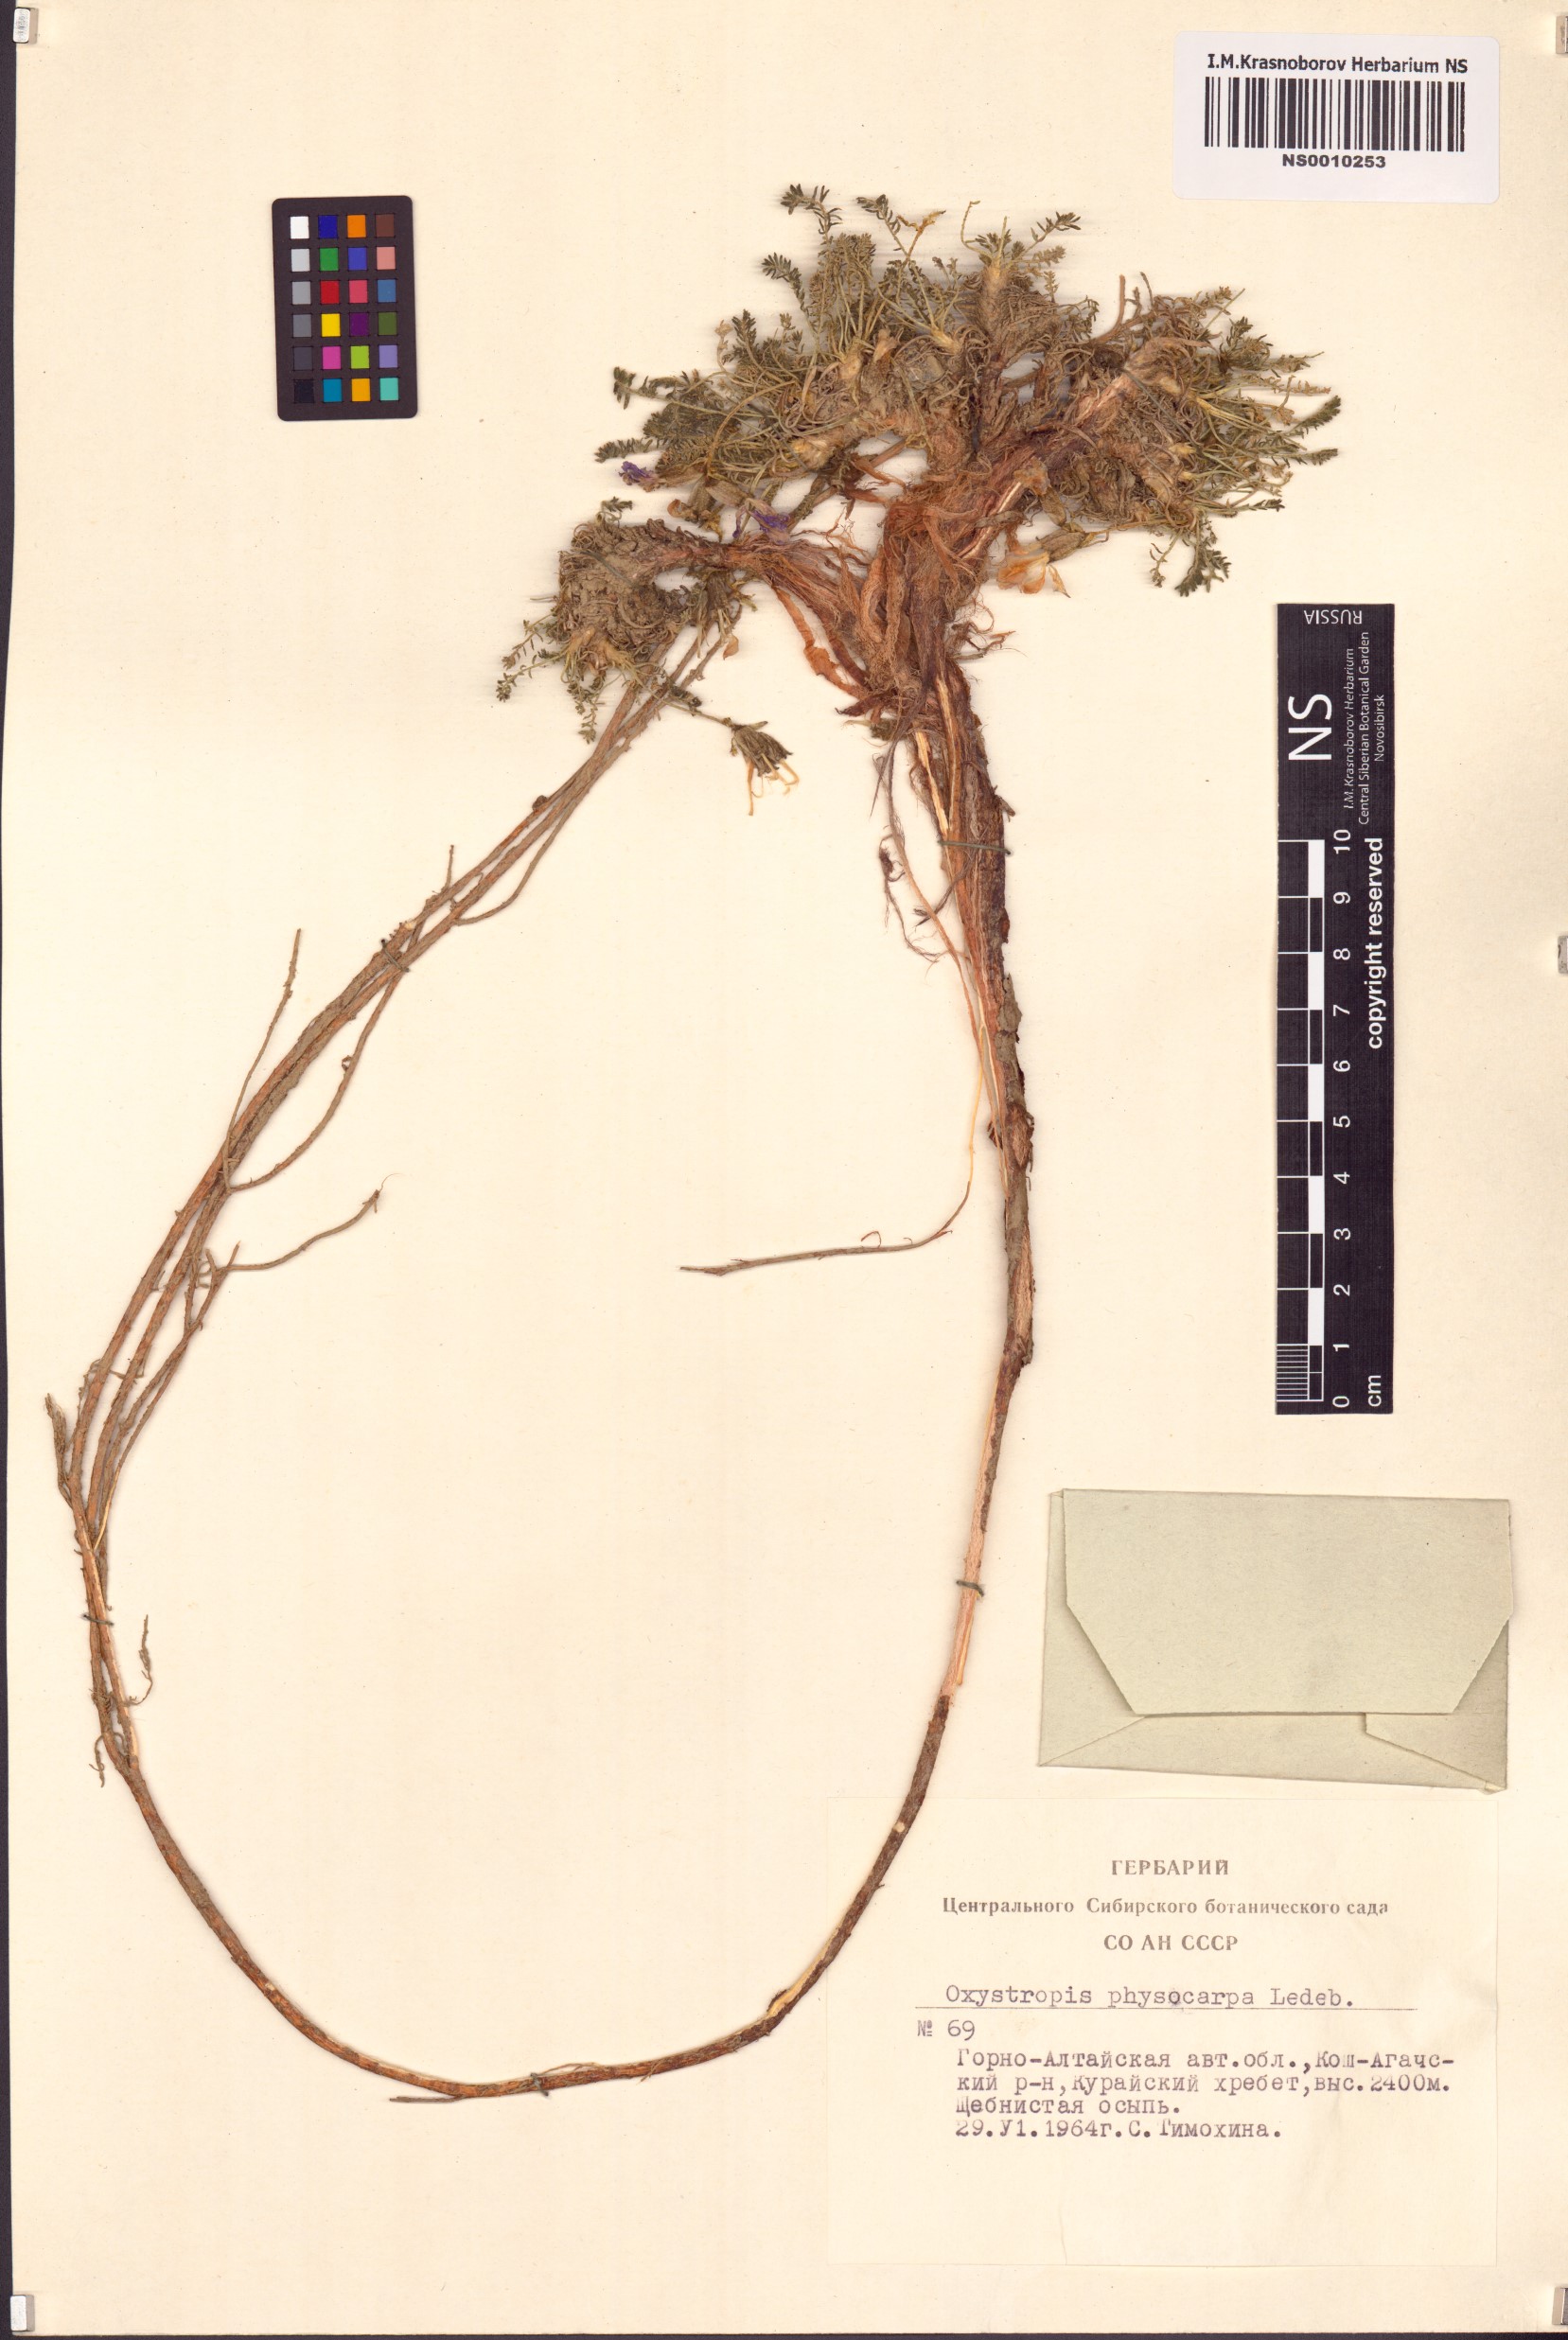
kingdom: Plantae
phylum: Tracheophyta
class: Magnoliopsida
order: Fabales
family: Fabaceae
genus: Oxytropis
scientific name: Oxytropis physocarpa
